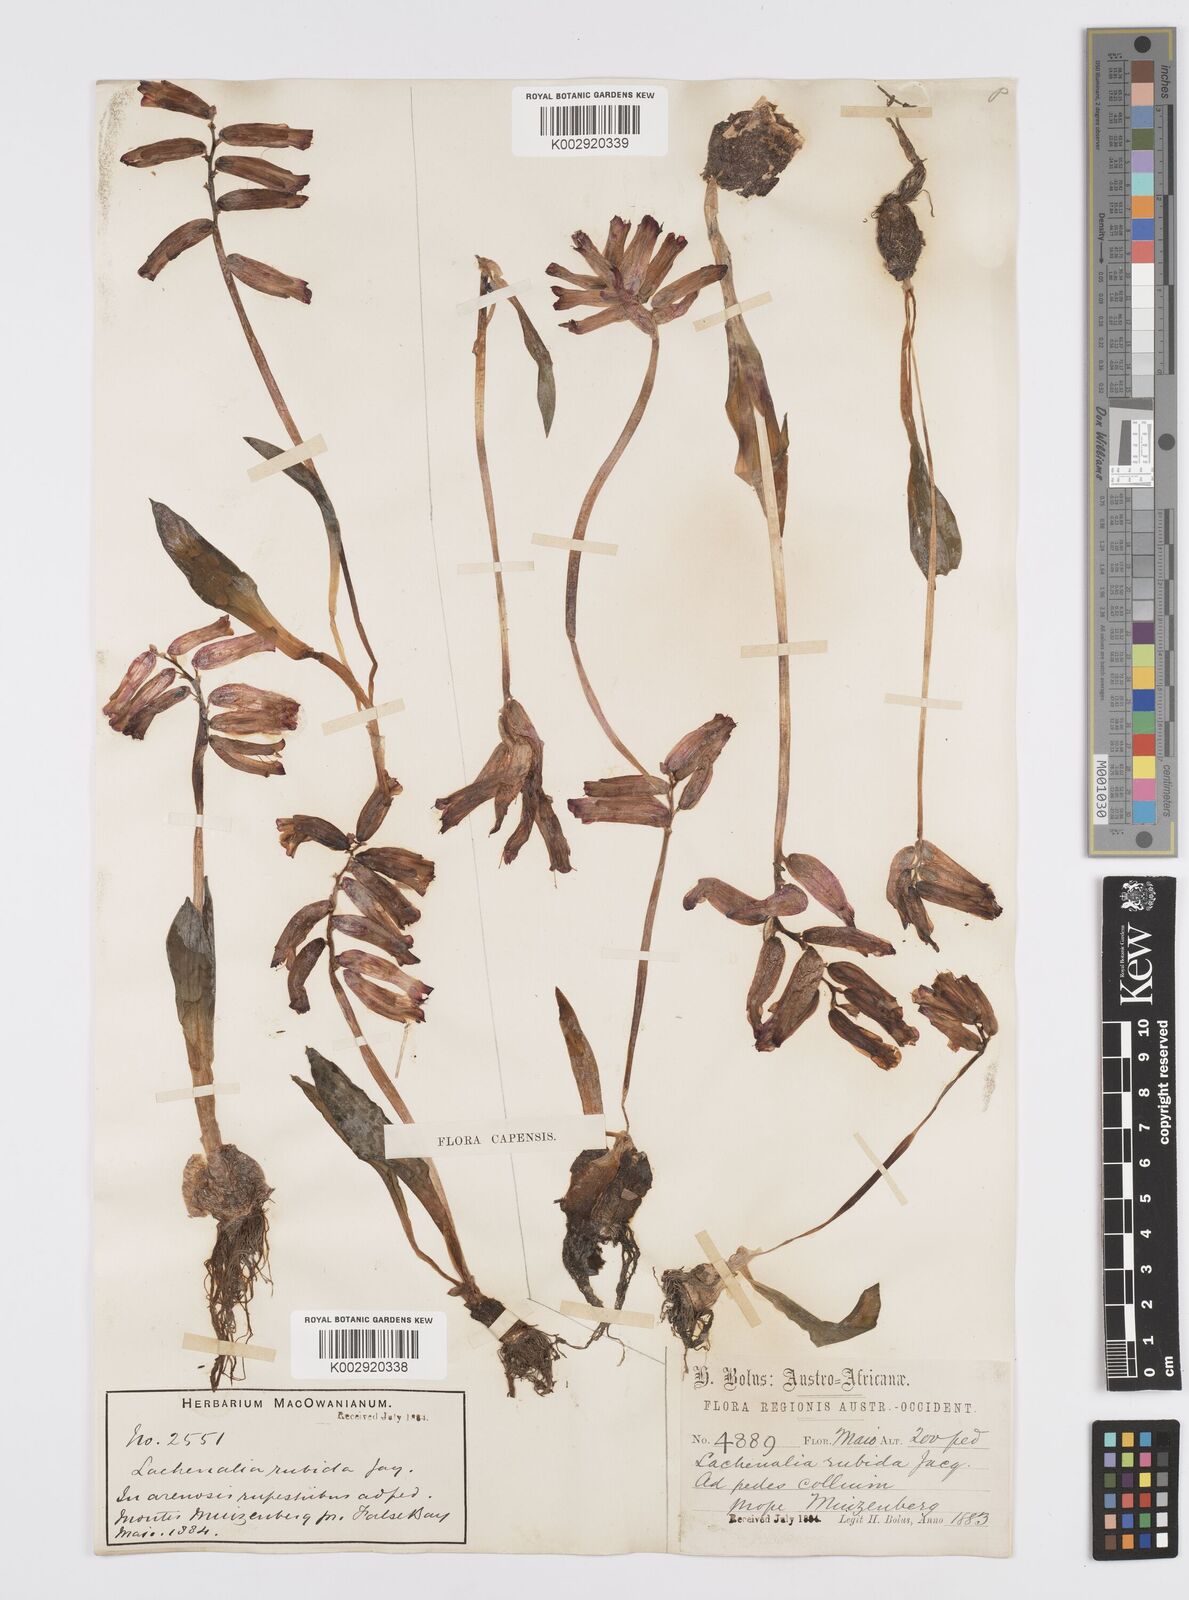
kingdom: Plantae
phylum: Tracheophyta
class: Liliopsida
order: Asparagales
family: Asparagaceae
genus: Lachenalia
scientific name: Lachenalia punctata
